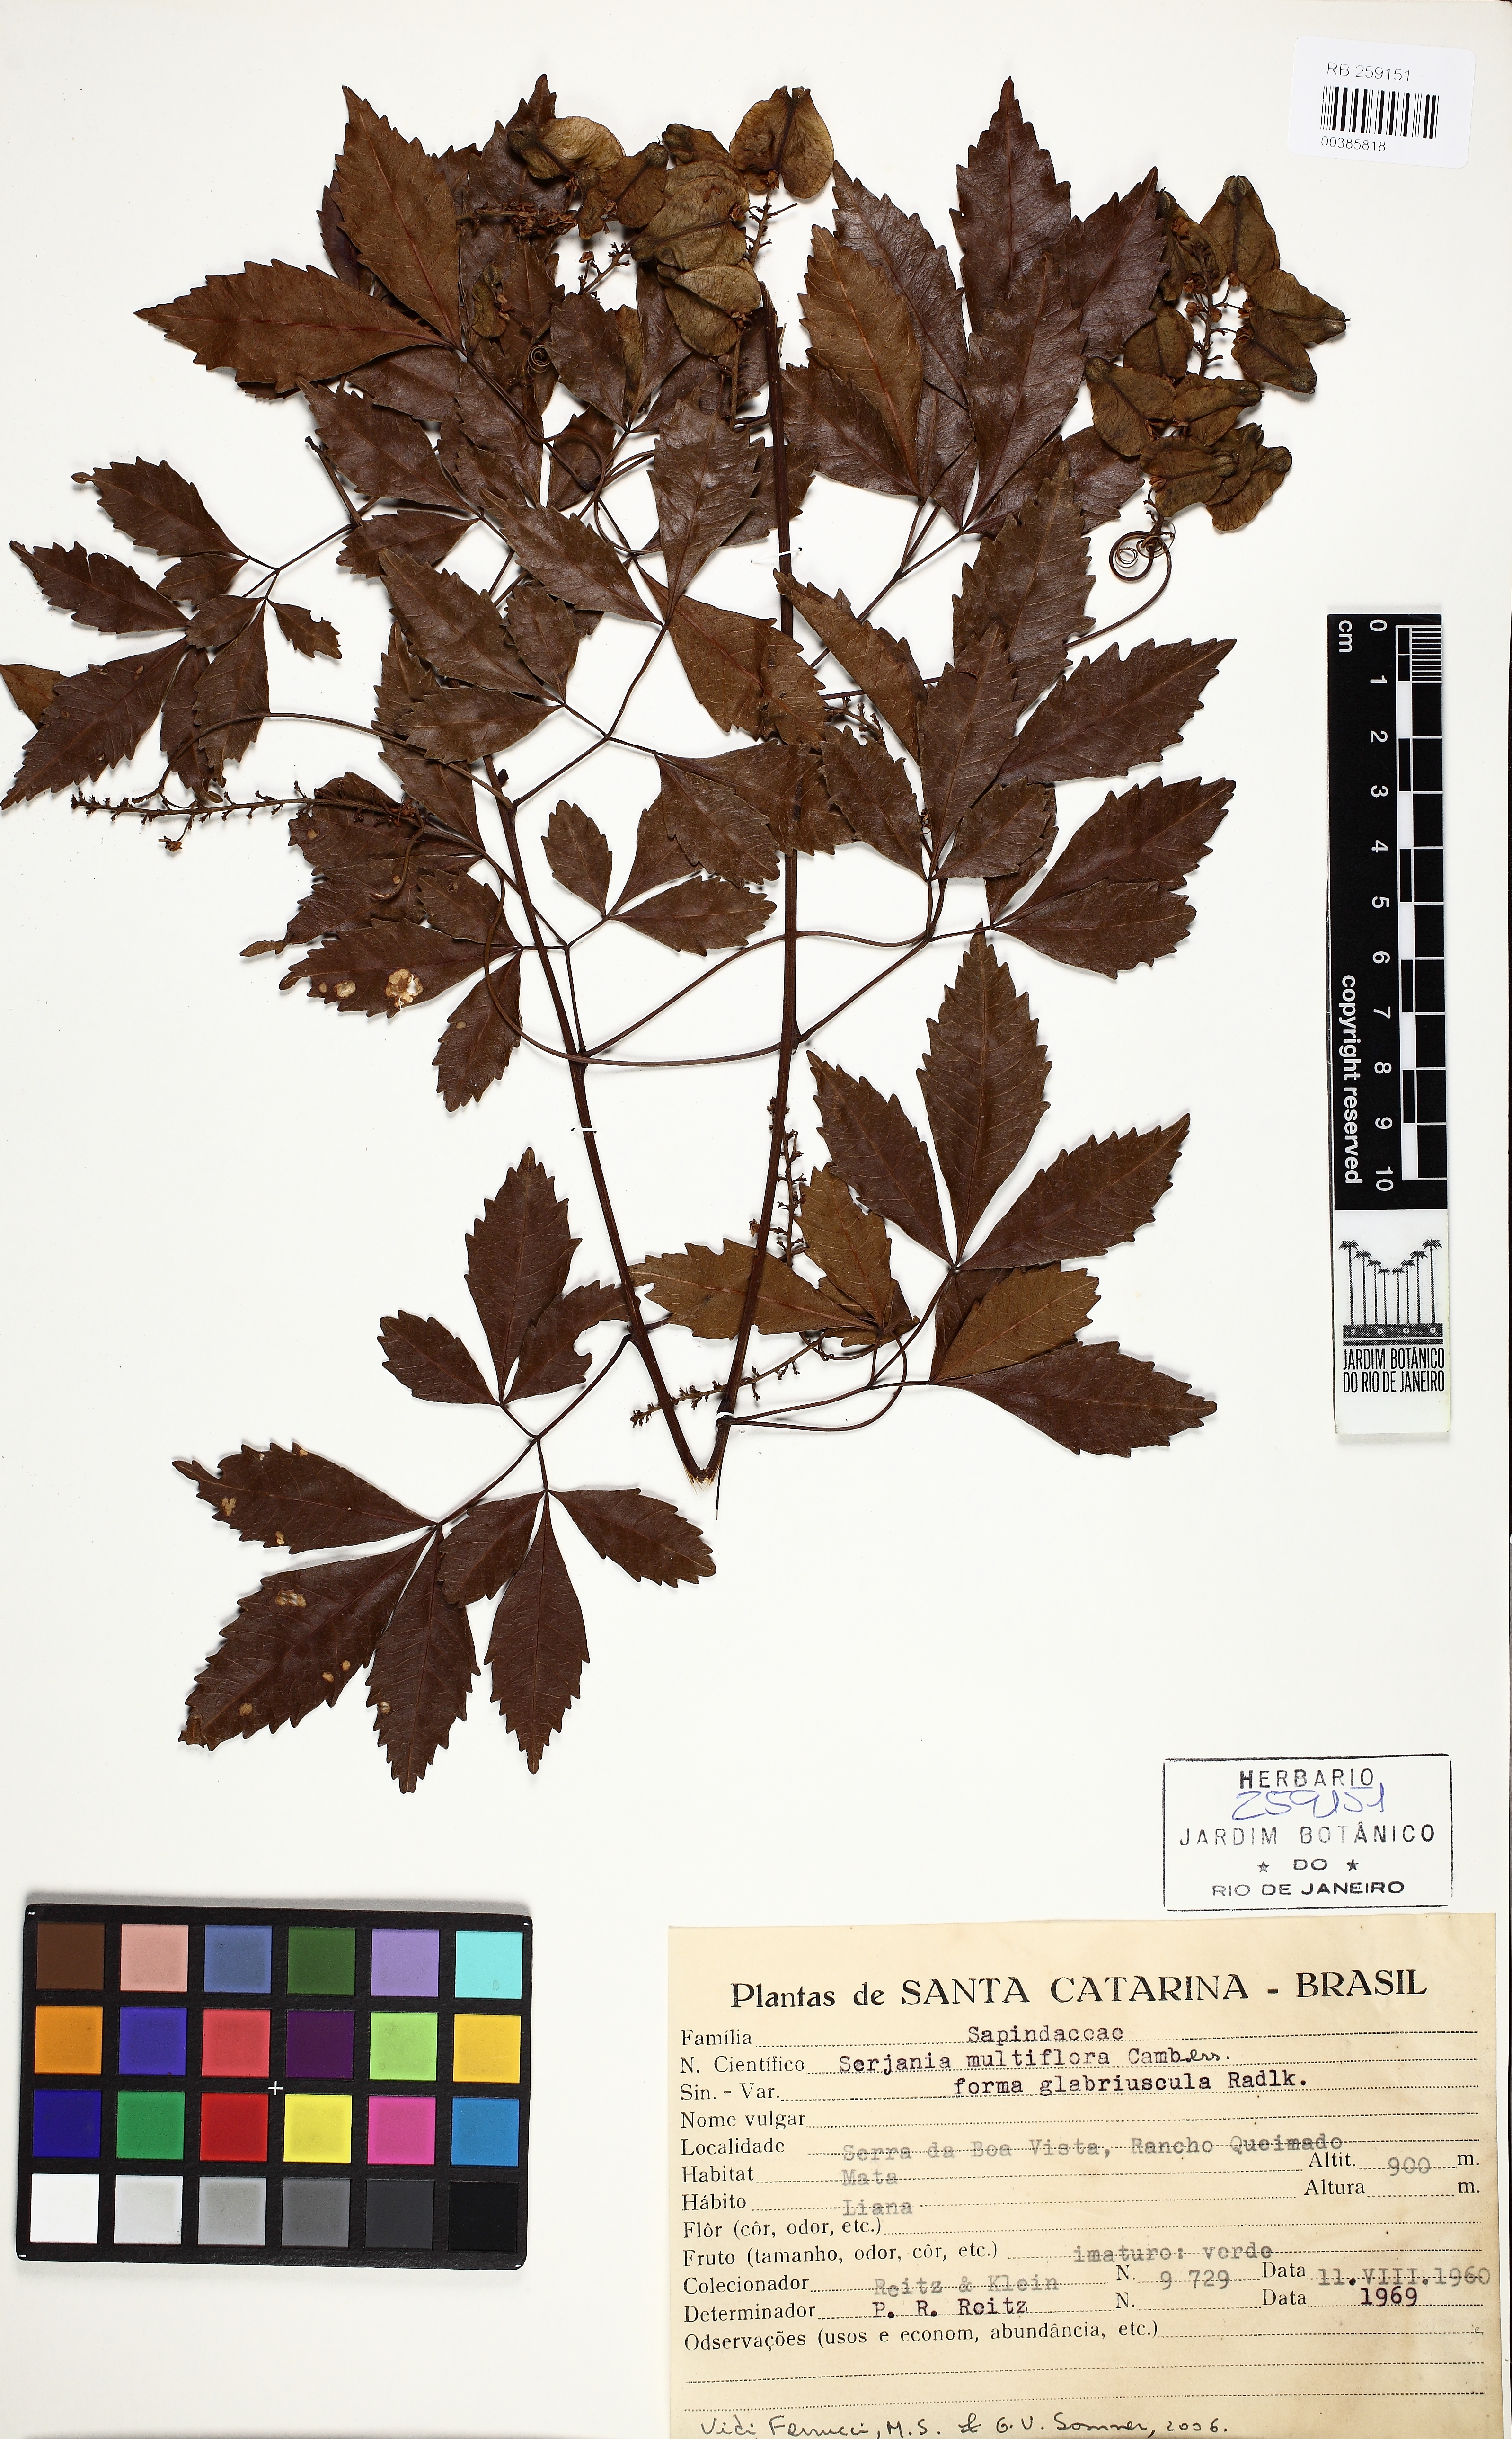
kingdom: Plantae
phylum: Tracheophyta
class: Magnoliopsida
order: Sapindales
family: Sapindaceae
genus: Serjania
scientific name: Serjania multiflora
